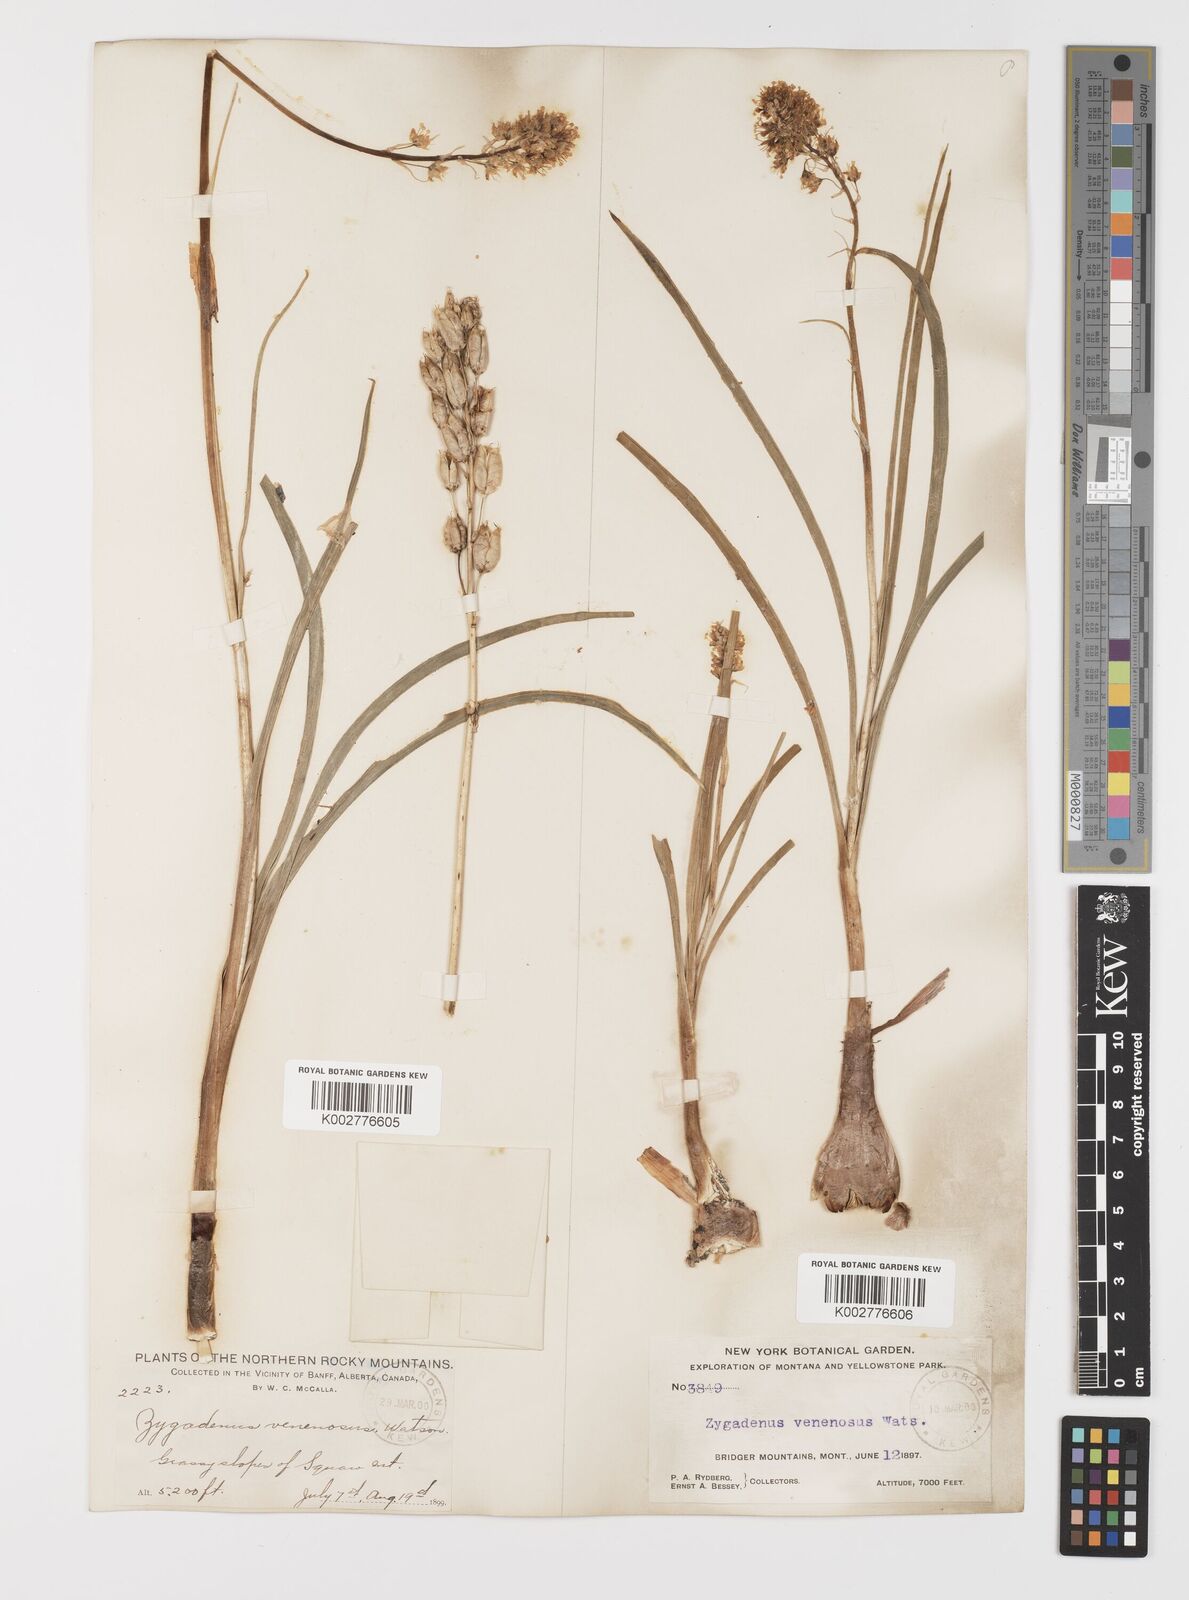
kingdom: Plantae
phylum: Tracheophyta
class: Liliopsida
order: Liliales
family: Melanthiaceae
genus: Toxicoscordion
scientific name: Toxicoscordion venenosum
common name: Meadow death camas
